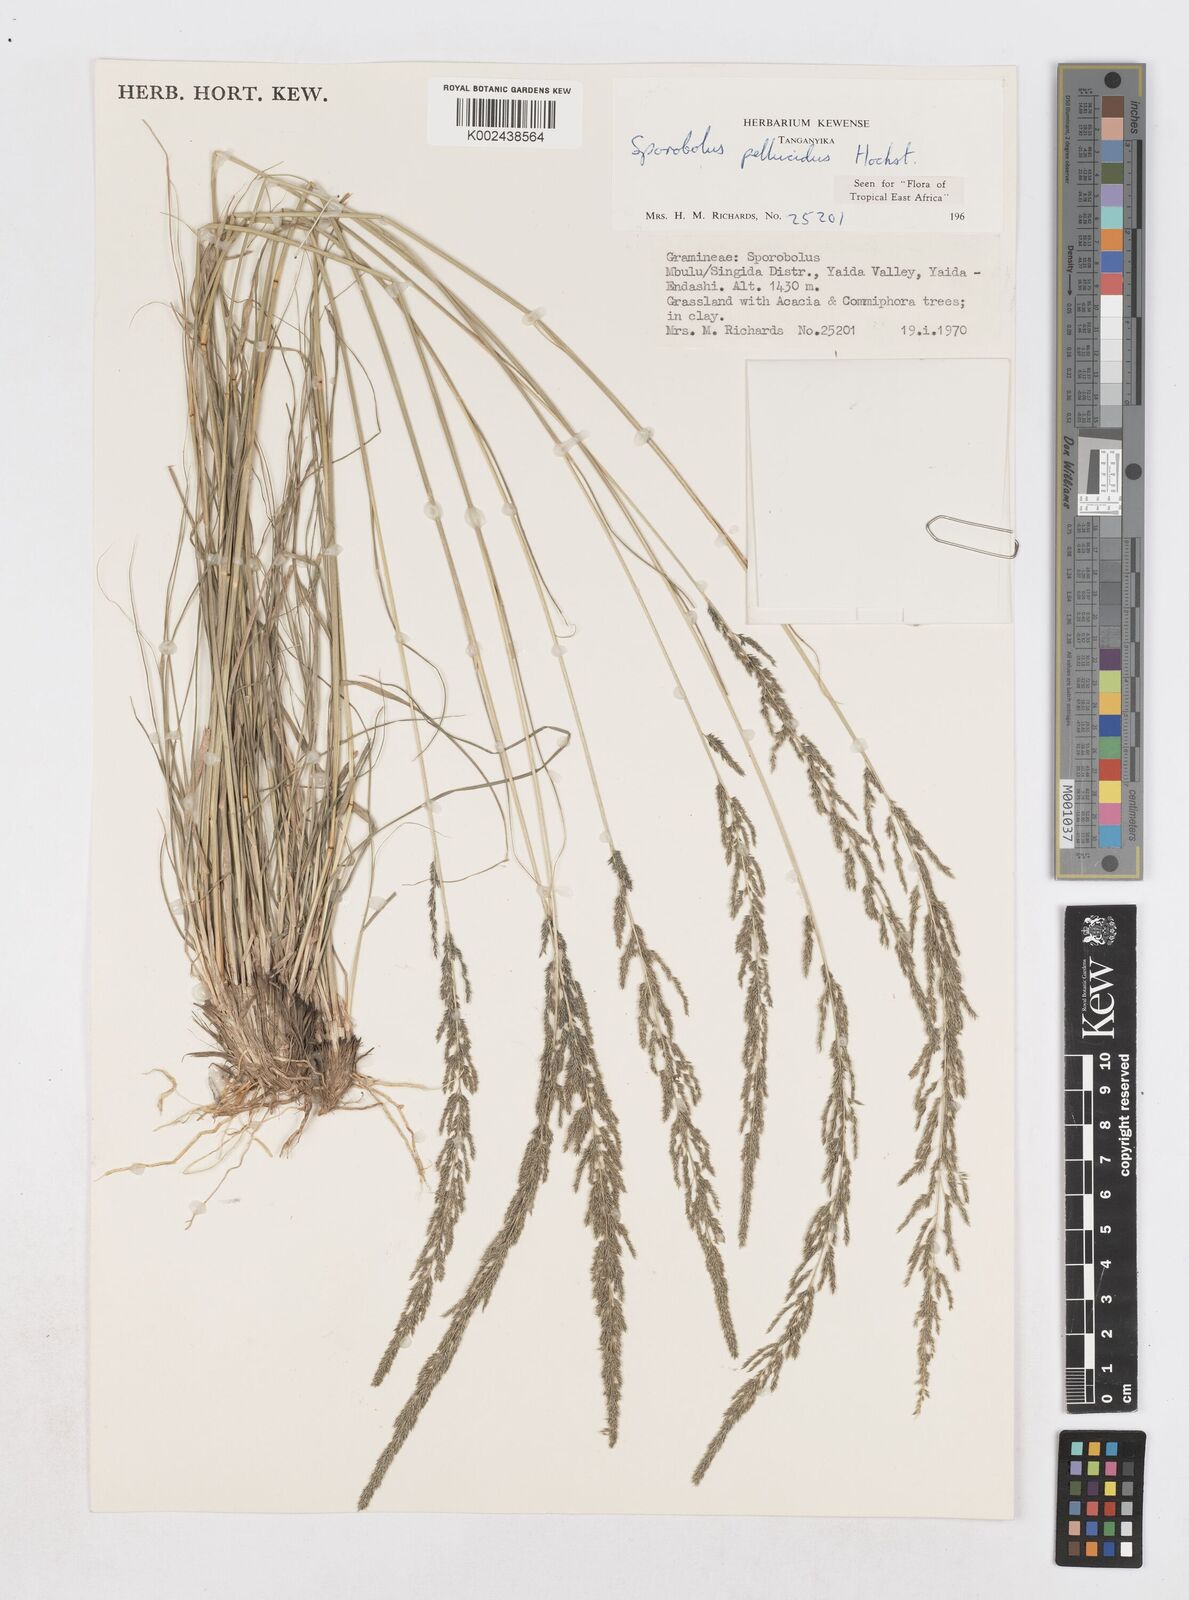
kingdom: Plantae
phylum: Tracheophyta
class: Liliopsida
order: Poales
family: Poaceae
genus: Sporobolus
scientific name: Sporobolus pellucidus
